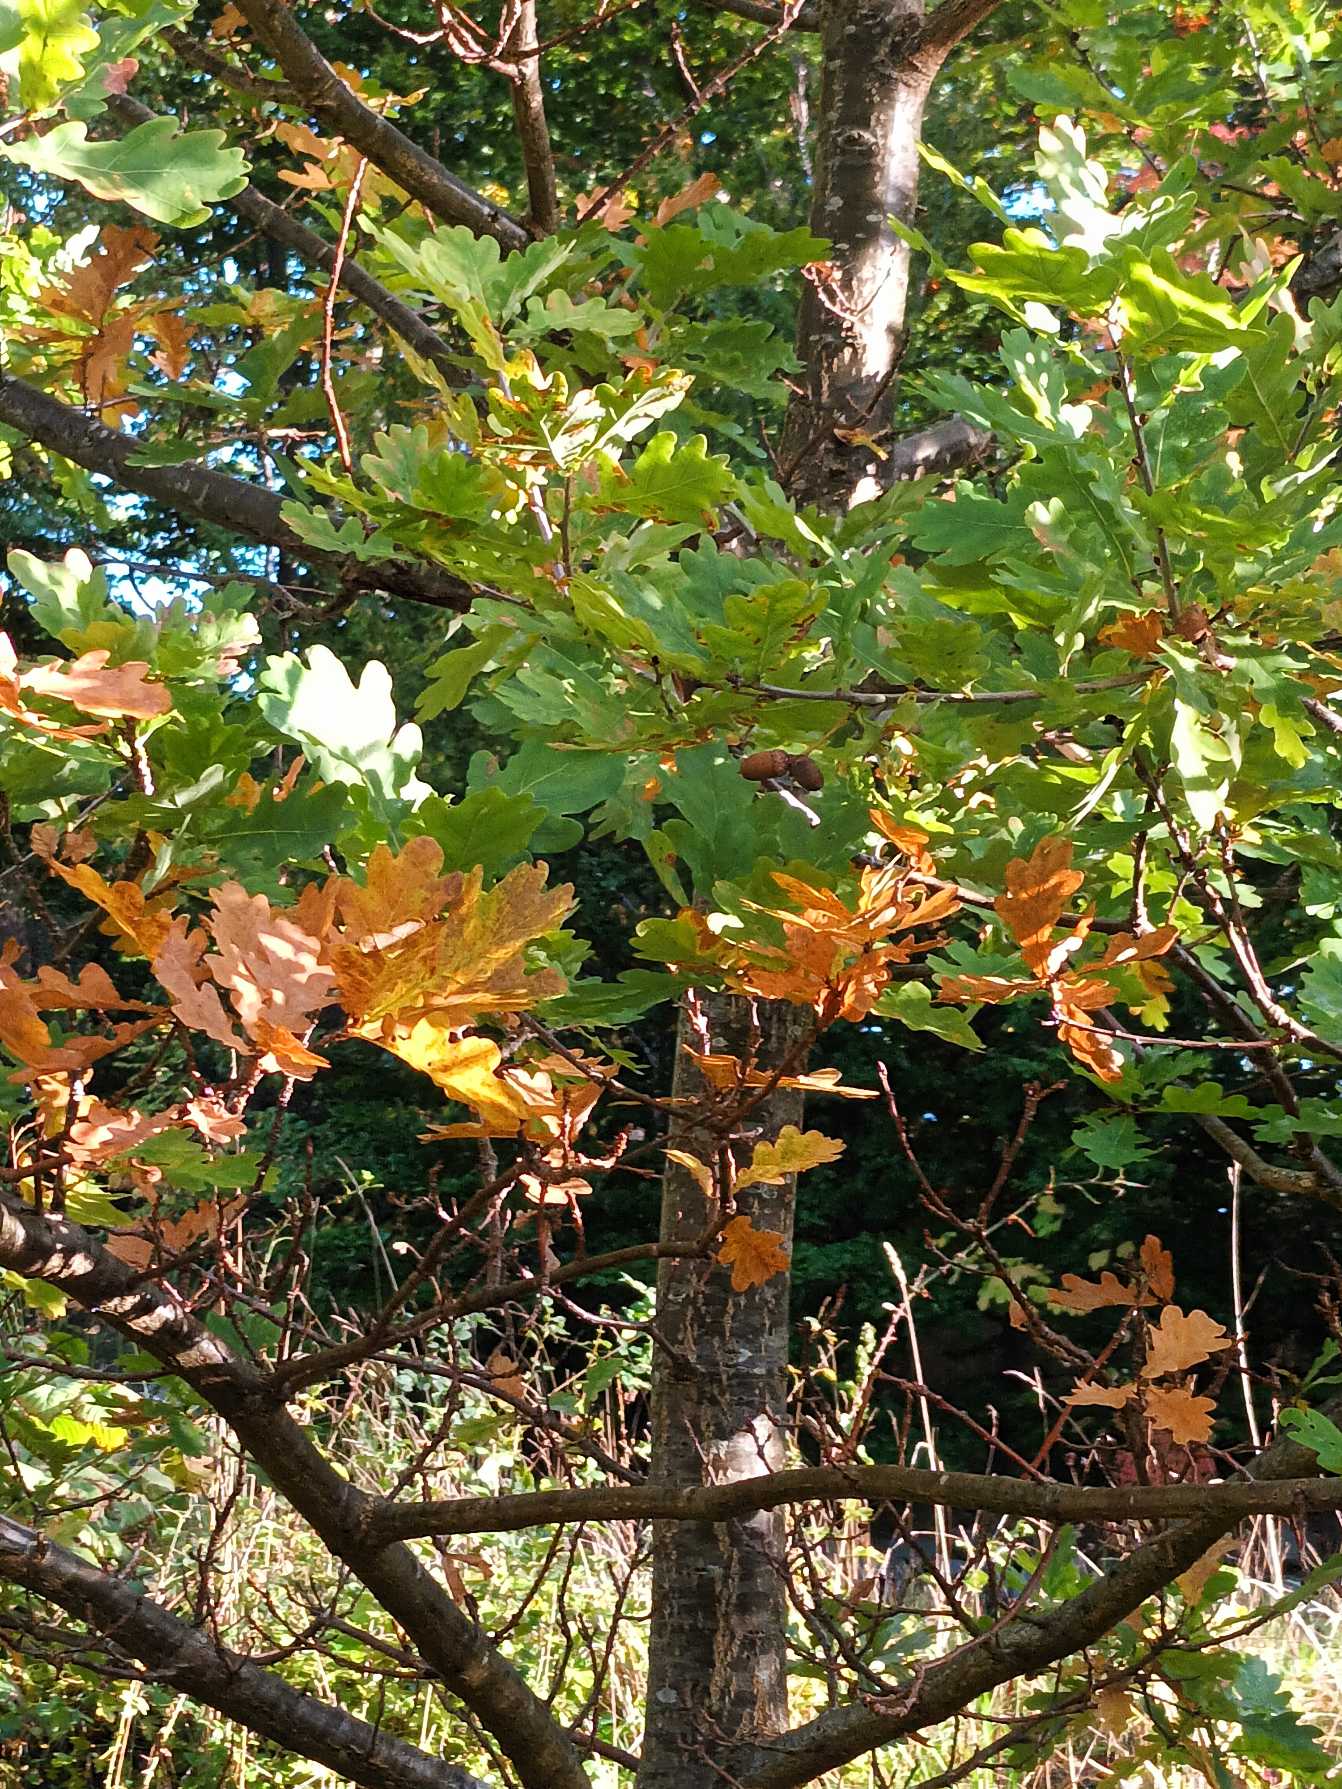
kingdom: Plantae
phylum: Tracheophyta
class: Magnoliopsida
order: Fagales
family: Fagaceae
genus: Quercus
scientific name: Quercus robur
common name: Stilk-eg/almindelig eg
